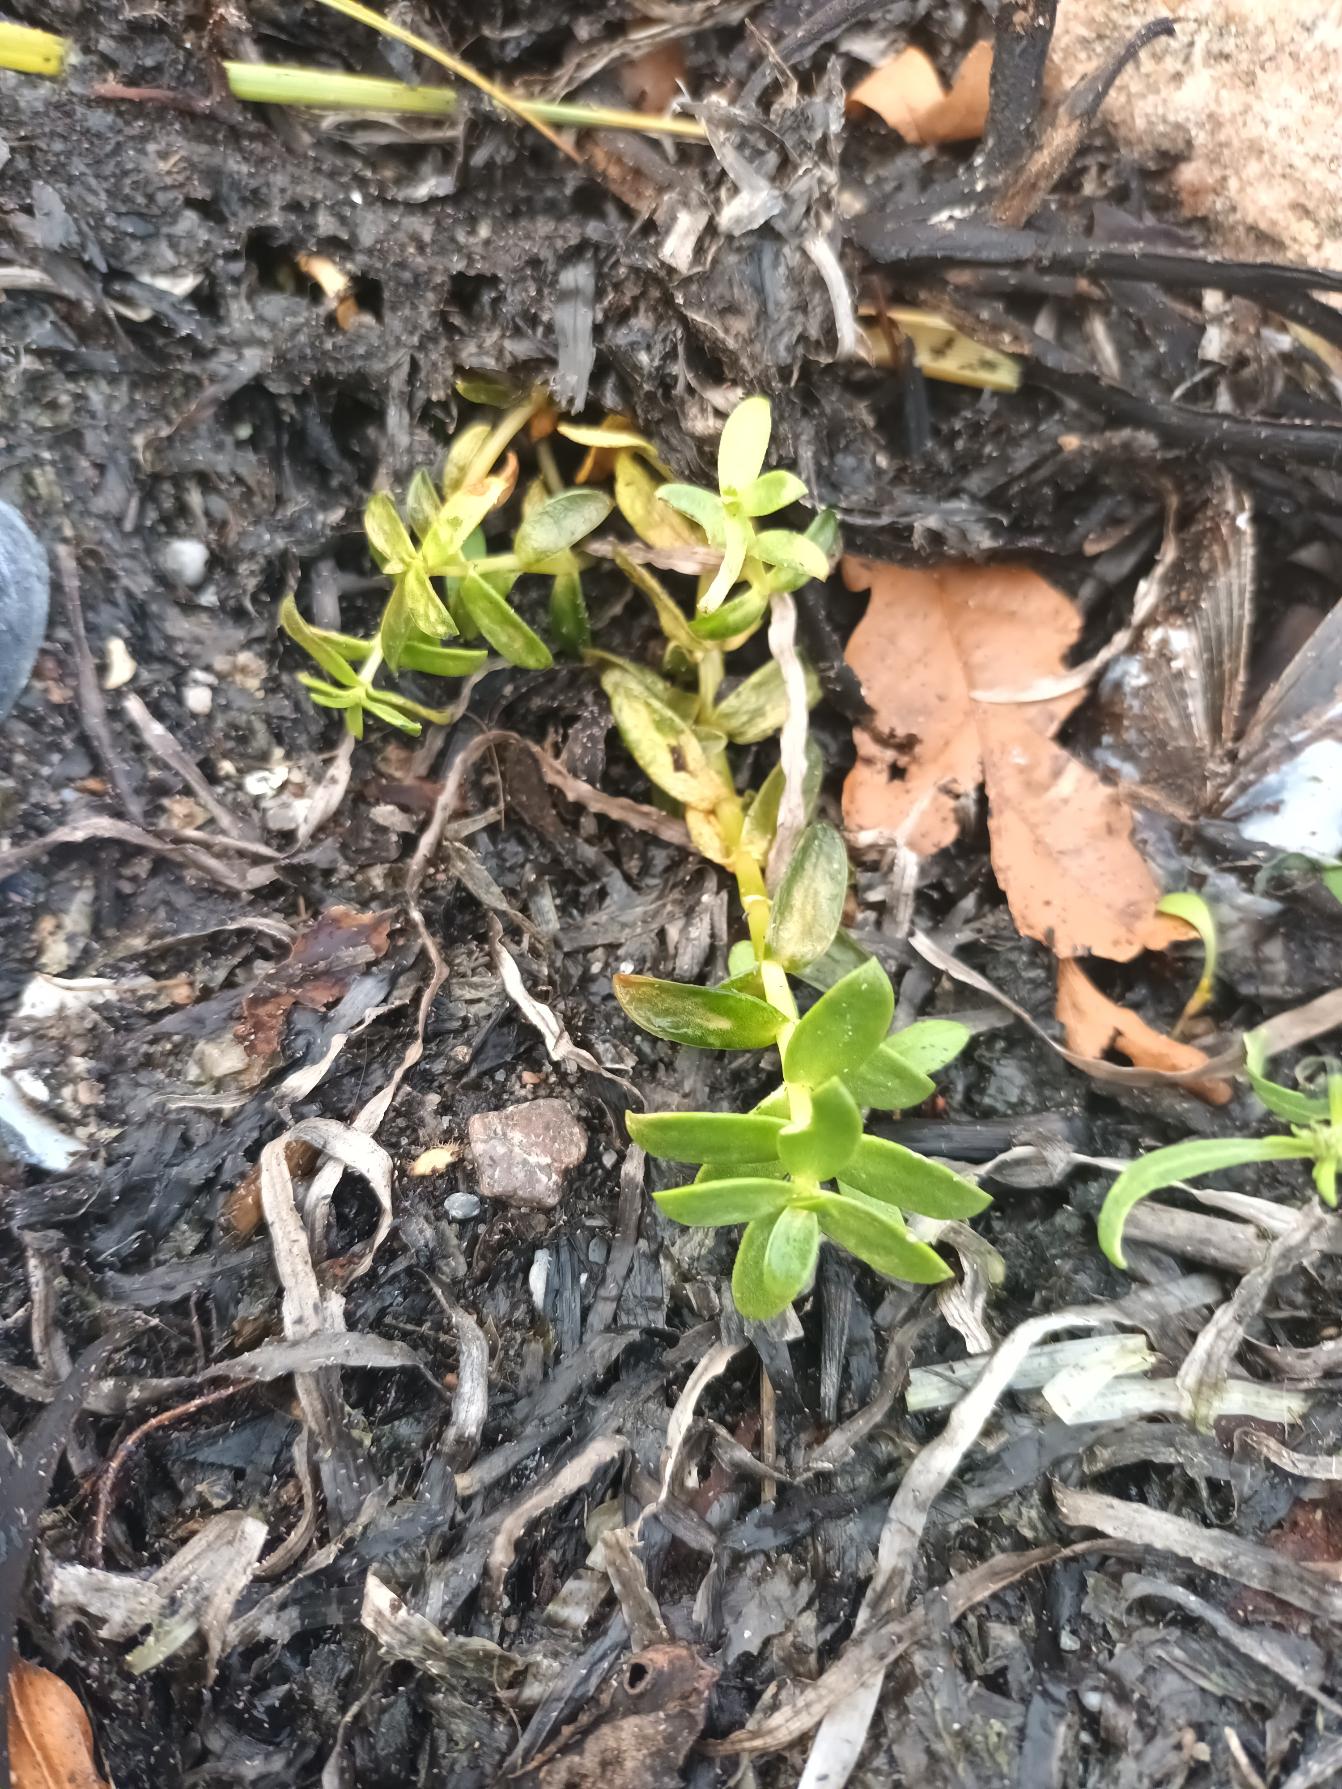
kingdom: Plantae
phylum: Tracheophyta
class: Magnoliopsida
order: Caryophyllales
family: Caryophyllaceae
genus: Honckenya
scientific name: Honckenya peploides
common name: Strandarve
